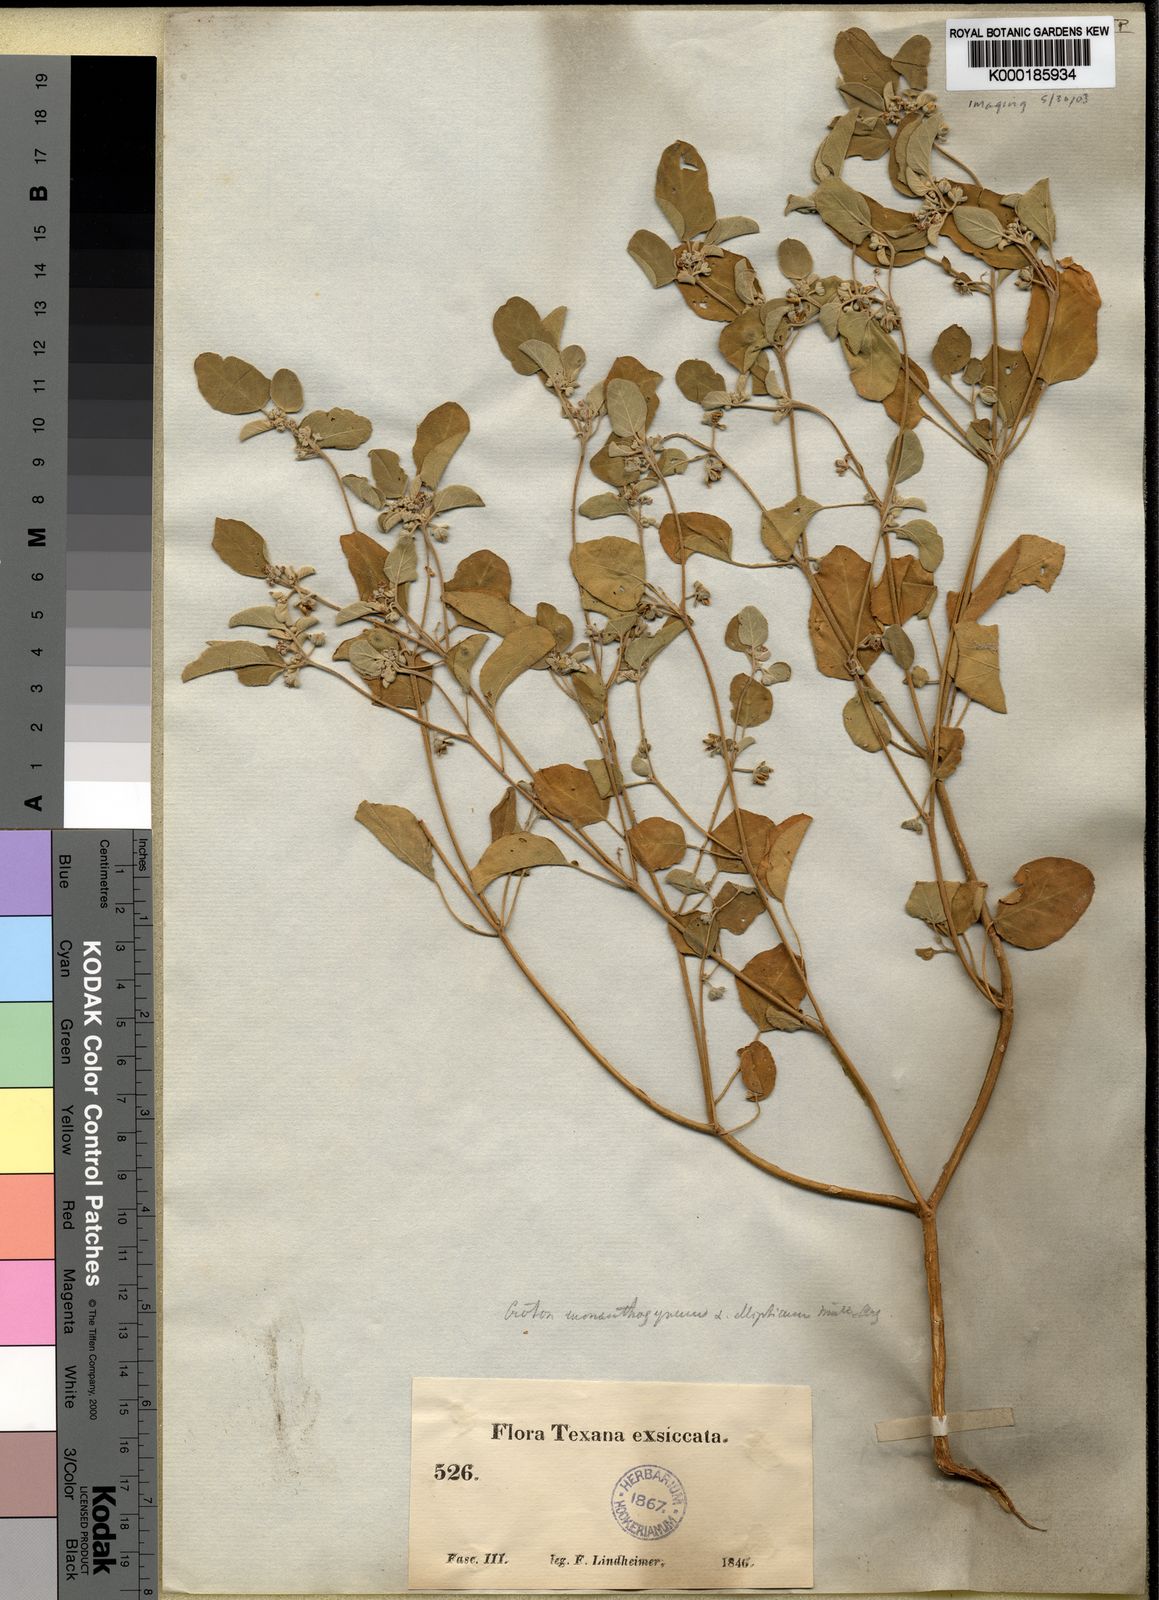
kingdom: Plantae
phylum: Tracheophyta
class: Magnoliopsida
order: Malpighiales
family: Euphorbiaceae
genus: Croton
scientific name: Croton ellipticus
